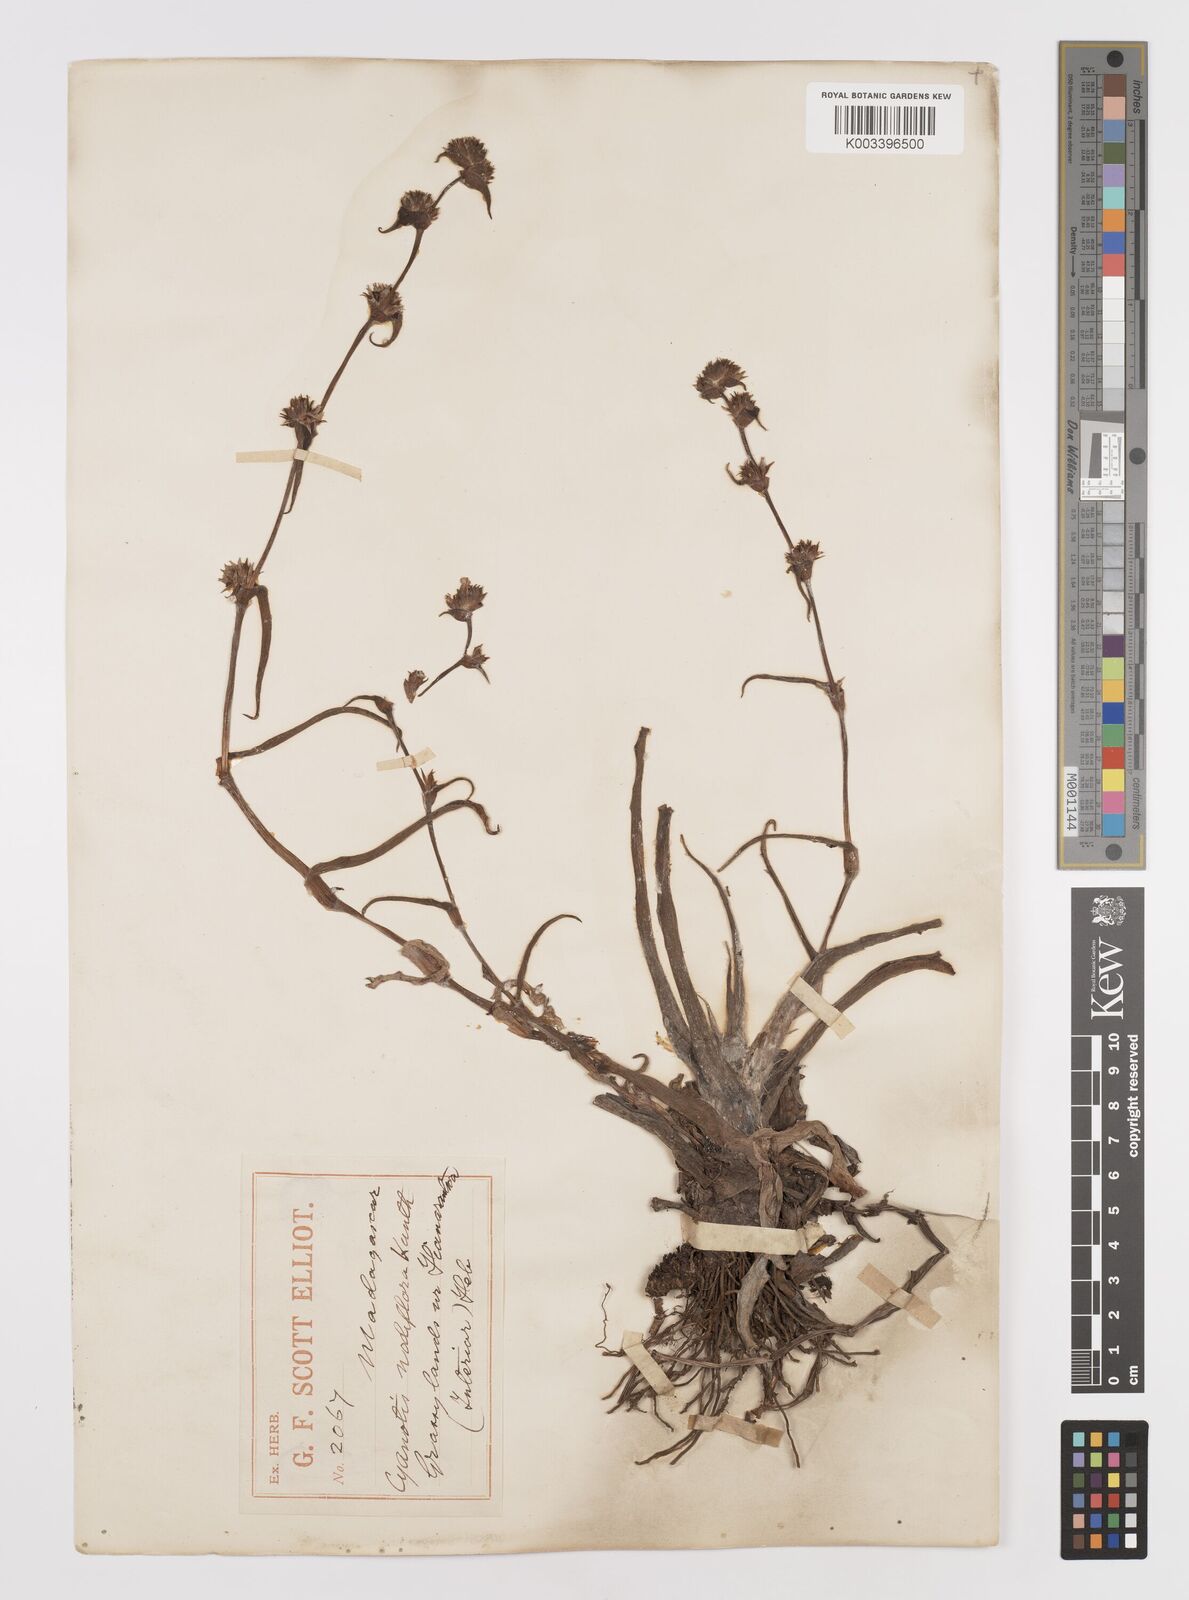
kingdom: Plantae
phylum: Tracheophyta
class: Liliopsida
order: Commelinales
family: Commelinaceae
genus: Cyanotis
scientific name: Cyanotis speciosa
